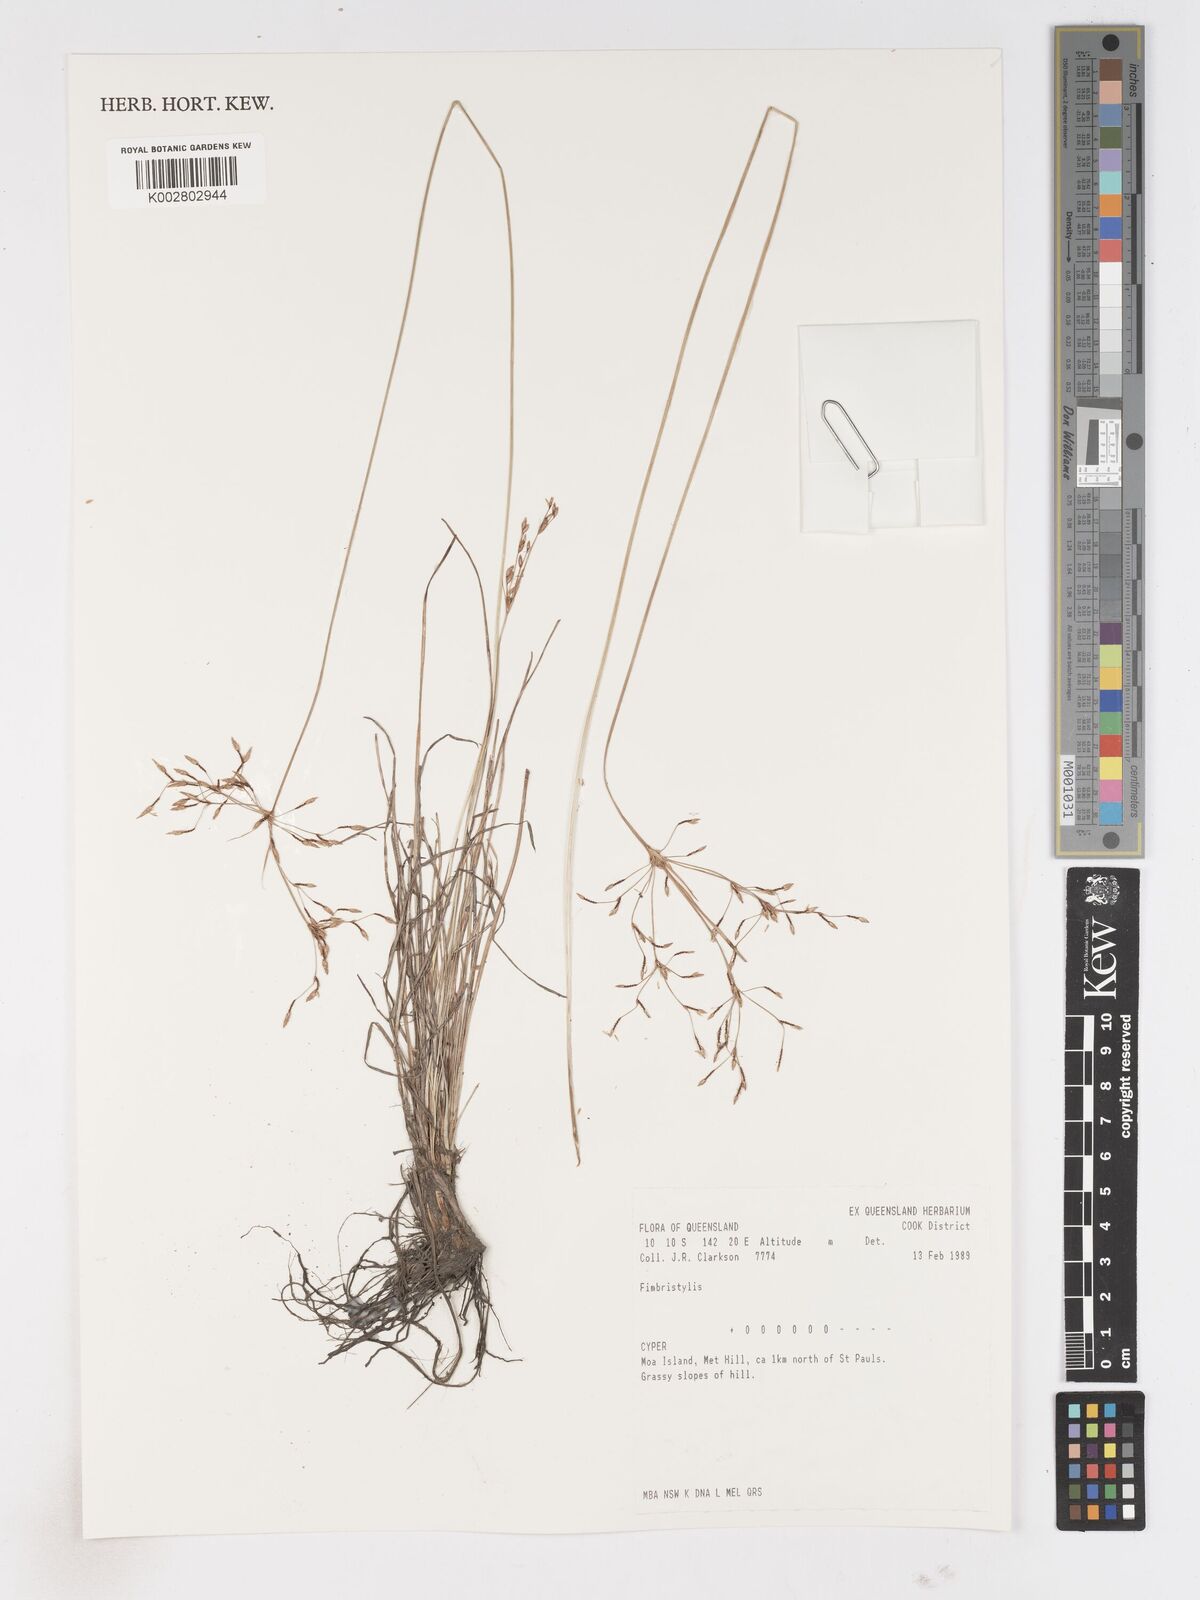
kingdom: Plantae
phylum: Tracheophyta
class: Liliopsida
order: Poales
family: Cyperaceae
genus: Fimbristylis
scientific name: Fimbristylis
